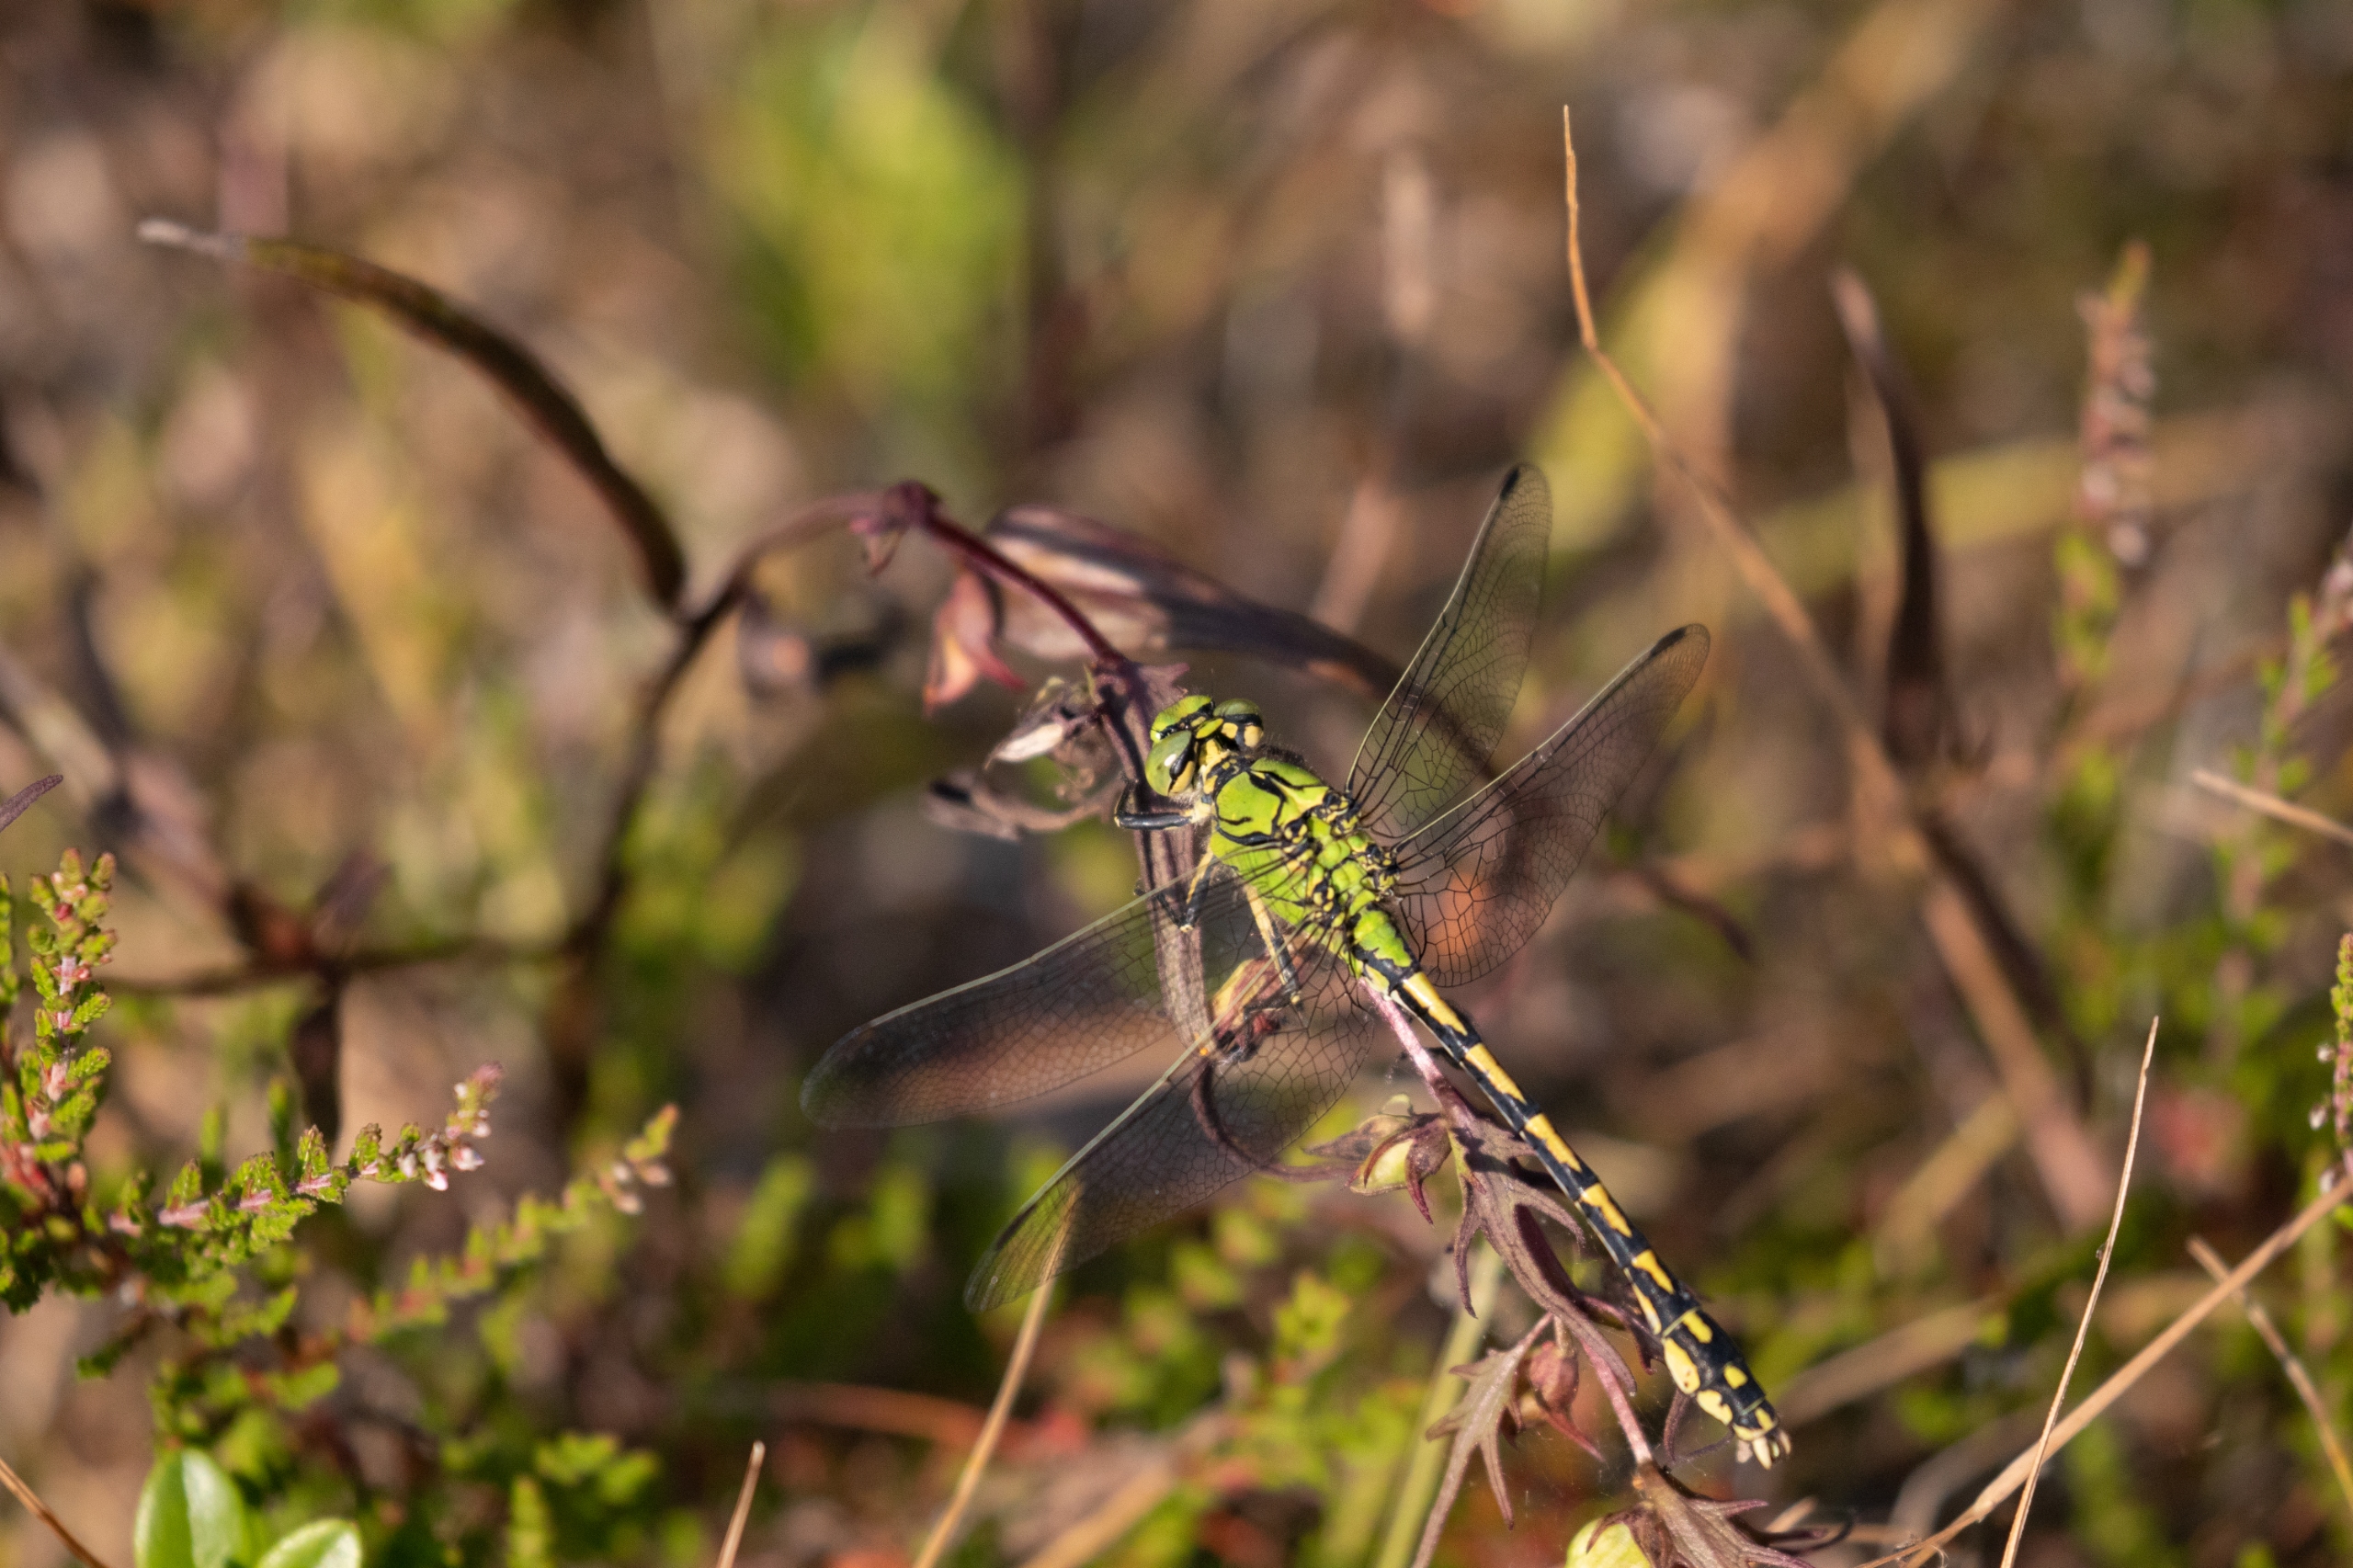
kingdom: Animalia
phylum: Arthropoda
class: Insecta
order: Odonata
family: Gomphidae
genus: Ophiogomphus
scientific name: Ophiogomphus cecilia
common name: Grøn kølleguldsmed
